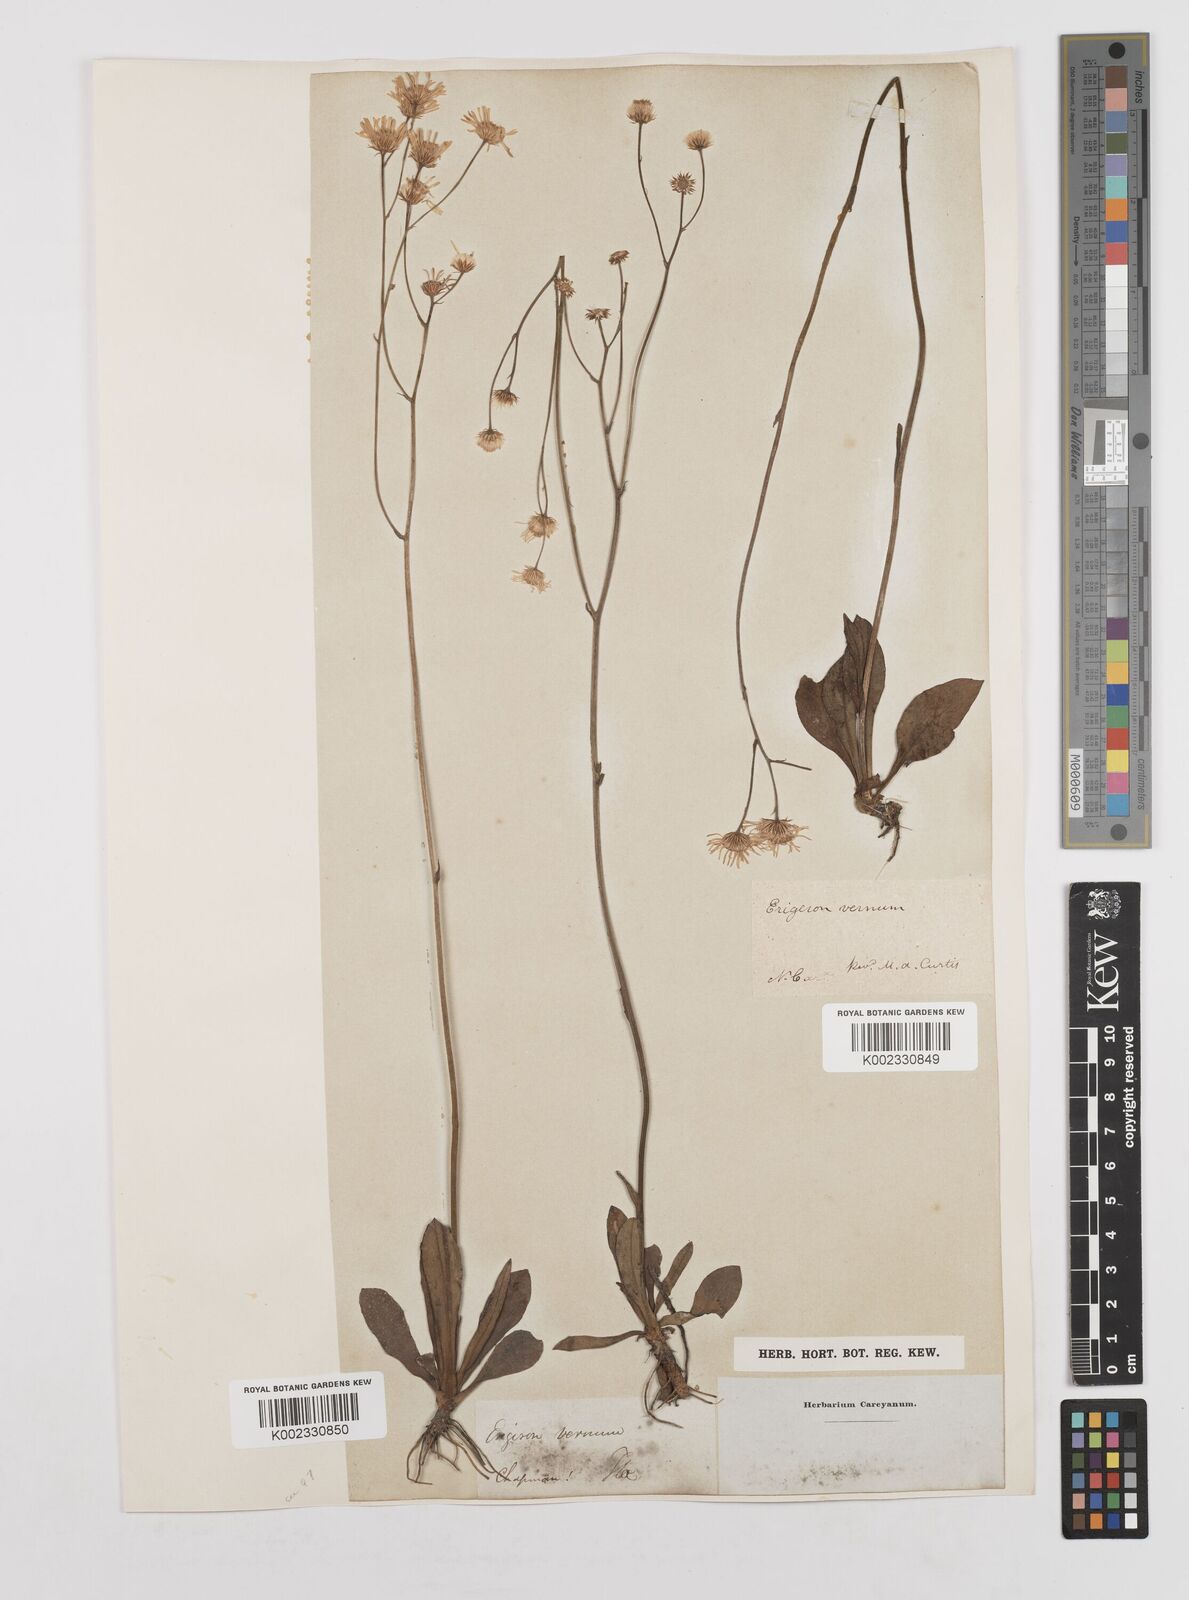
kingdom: Plantae
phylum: Tracheophyta
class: Magnoliopsida
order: Asterales
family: Asteraceae
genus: Erigeron
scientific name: Erigeron vernus
